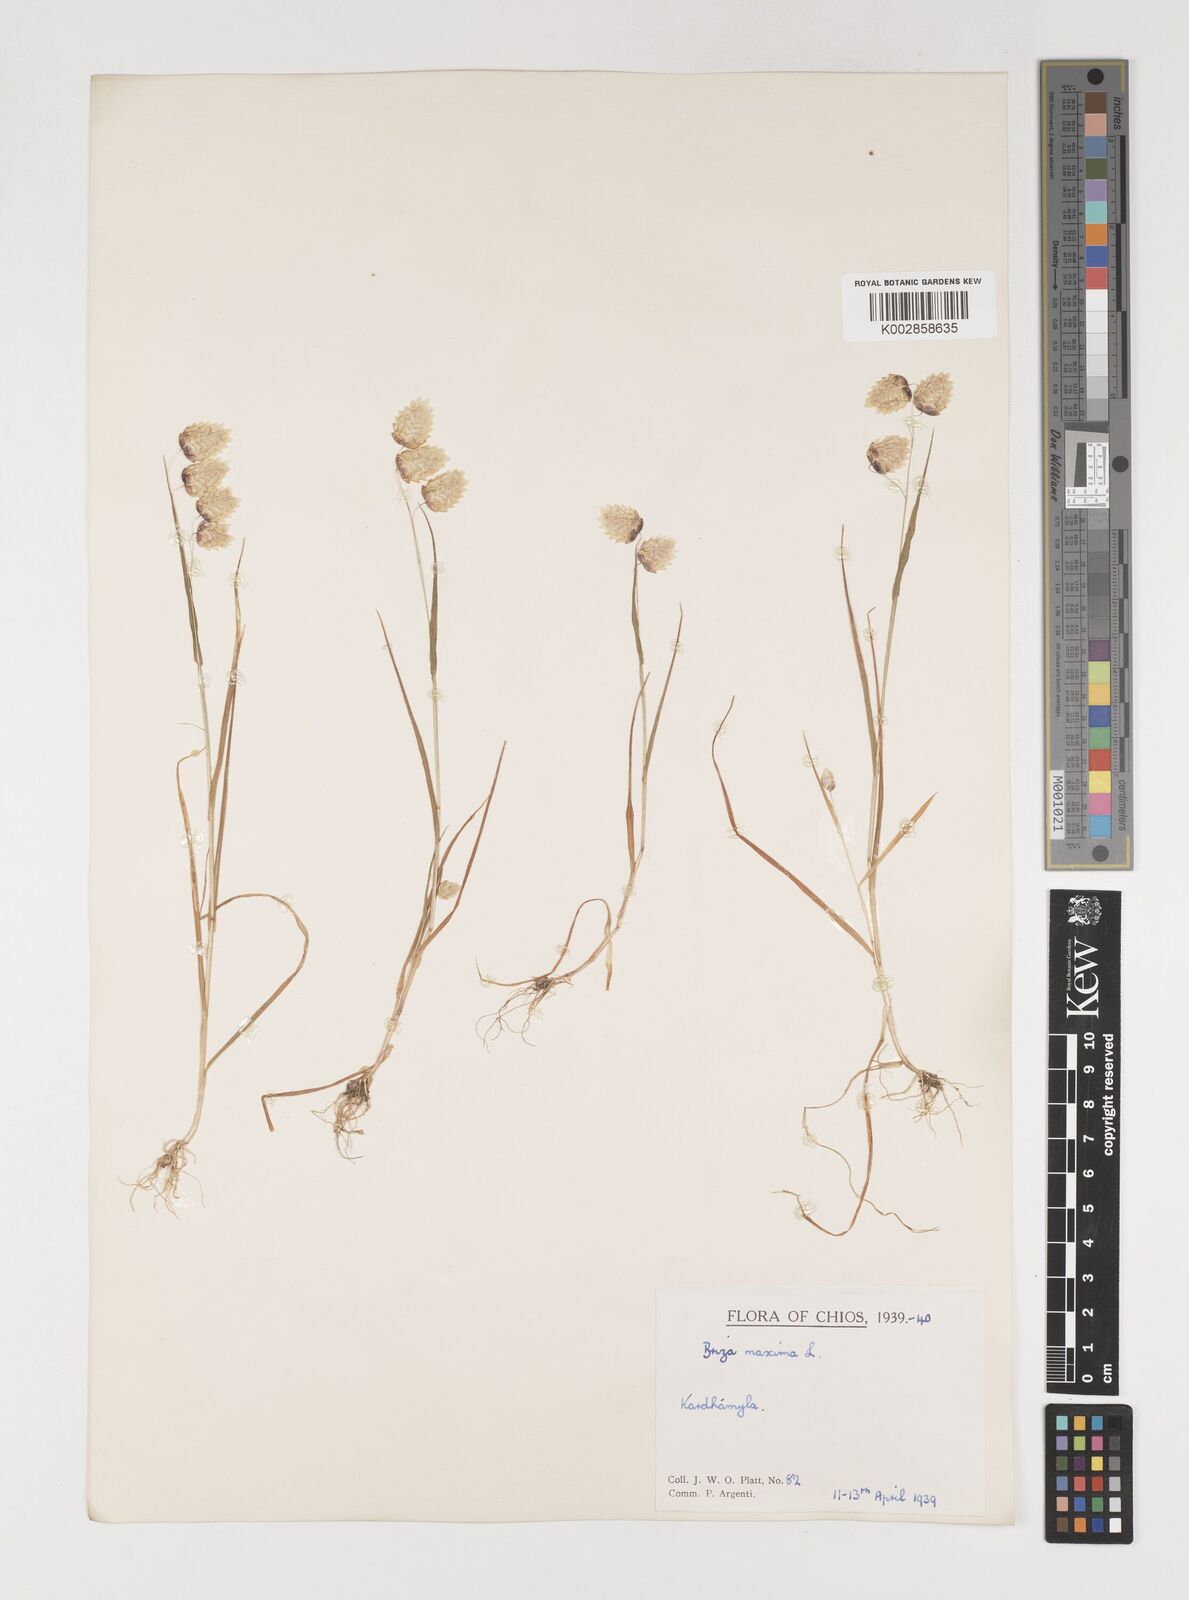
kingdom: Plantae
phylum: Tracheophyta
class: Liliopsida
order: Poales
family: Poaceae
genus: Briza
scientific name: Briza maxima
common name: Big quakinggrass
